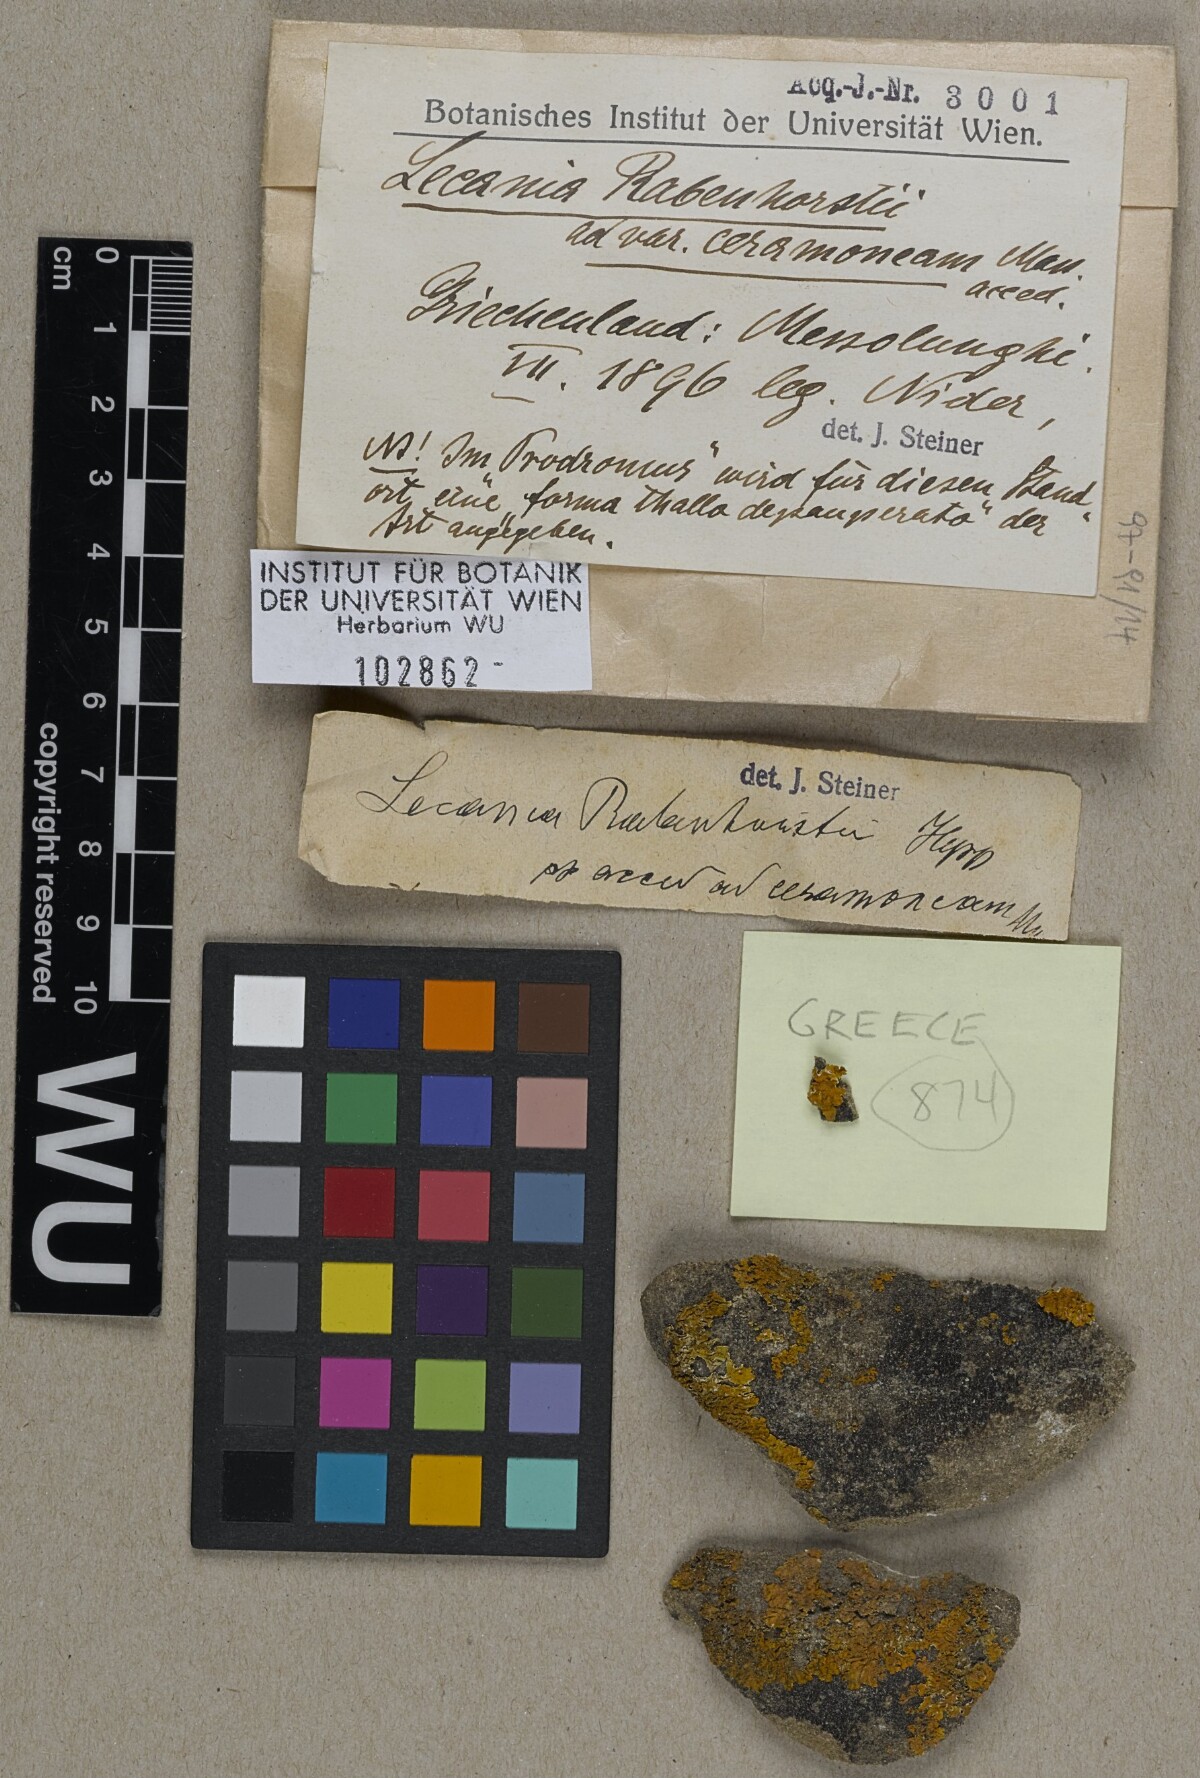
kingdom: Fungi
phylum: Ascomycota
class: Lecanoromycetes
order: Lecanorales
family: Ramalinaceae
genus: Lecania
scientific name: Lecania rabenhorstii
